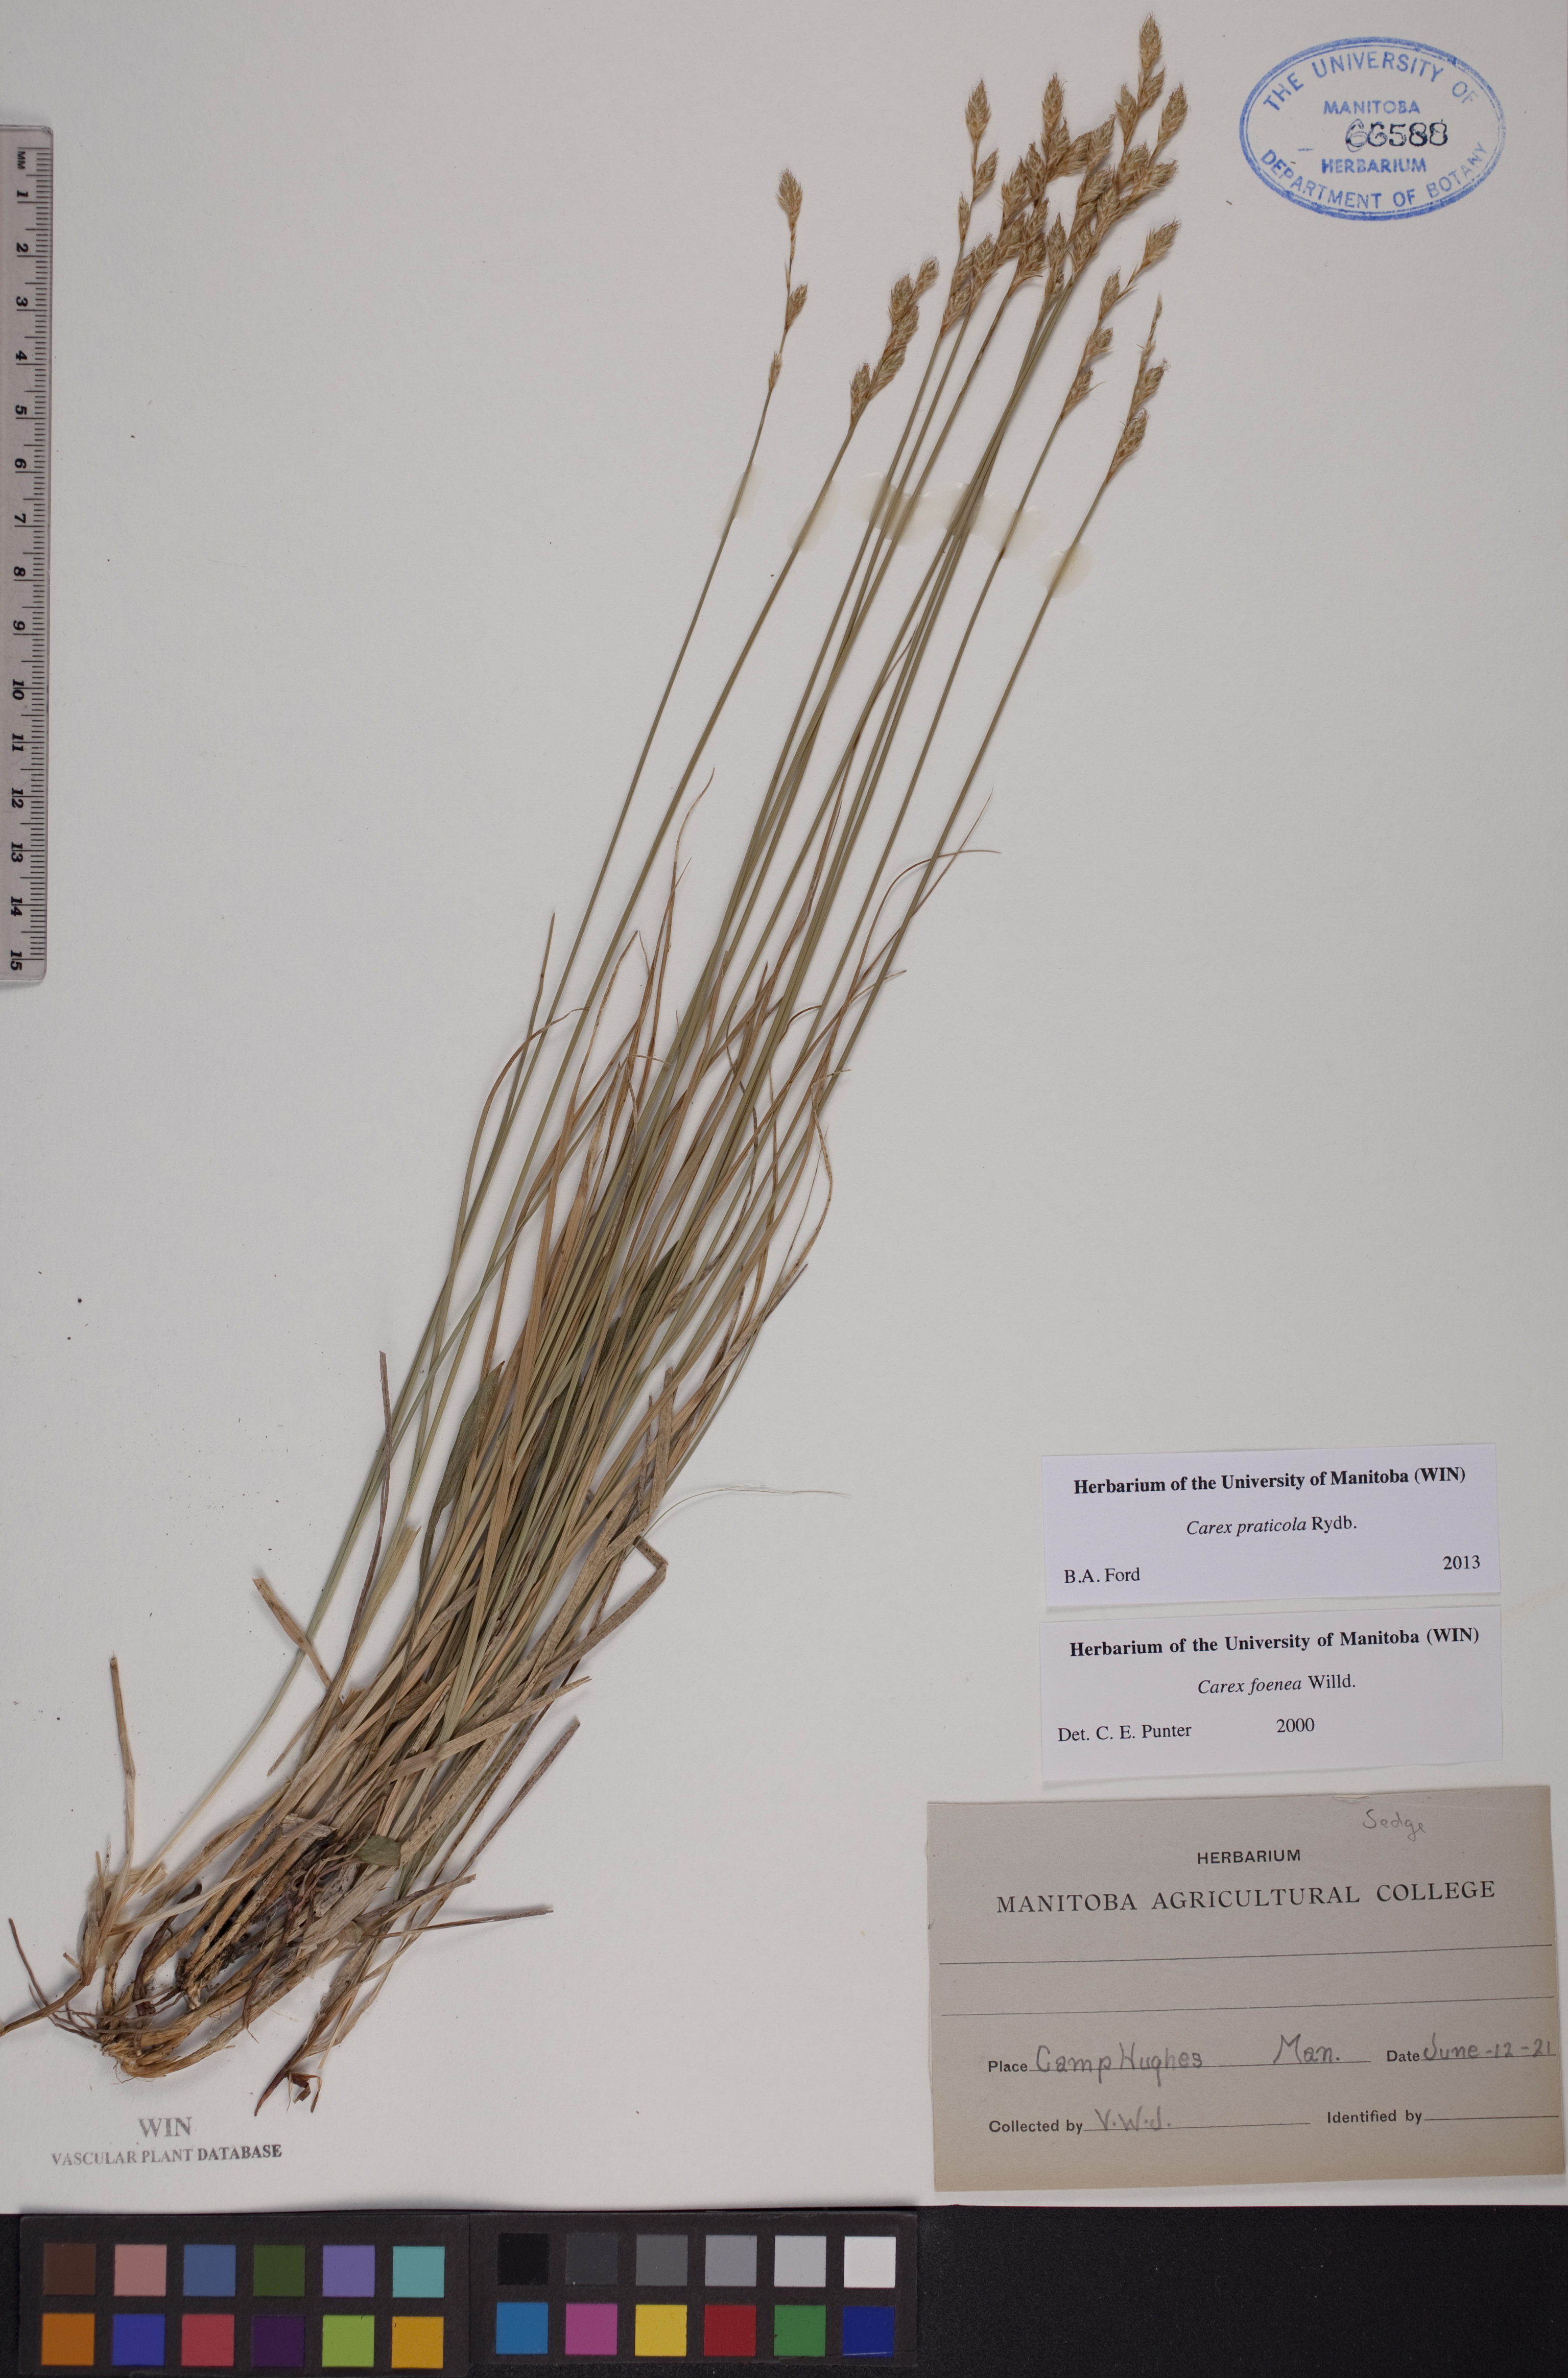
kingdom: Plantae
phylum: Tracheophyta
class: Liliopsida
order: Poales
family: Cyperaceae
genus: Carex
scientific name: Carex praticola
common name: Large-fruited oval sedge
